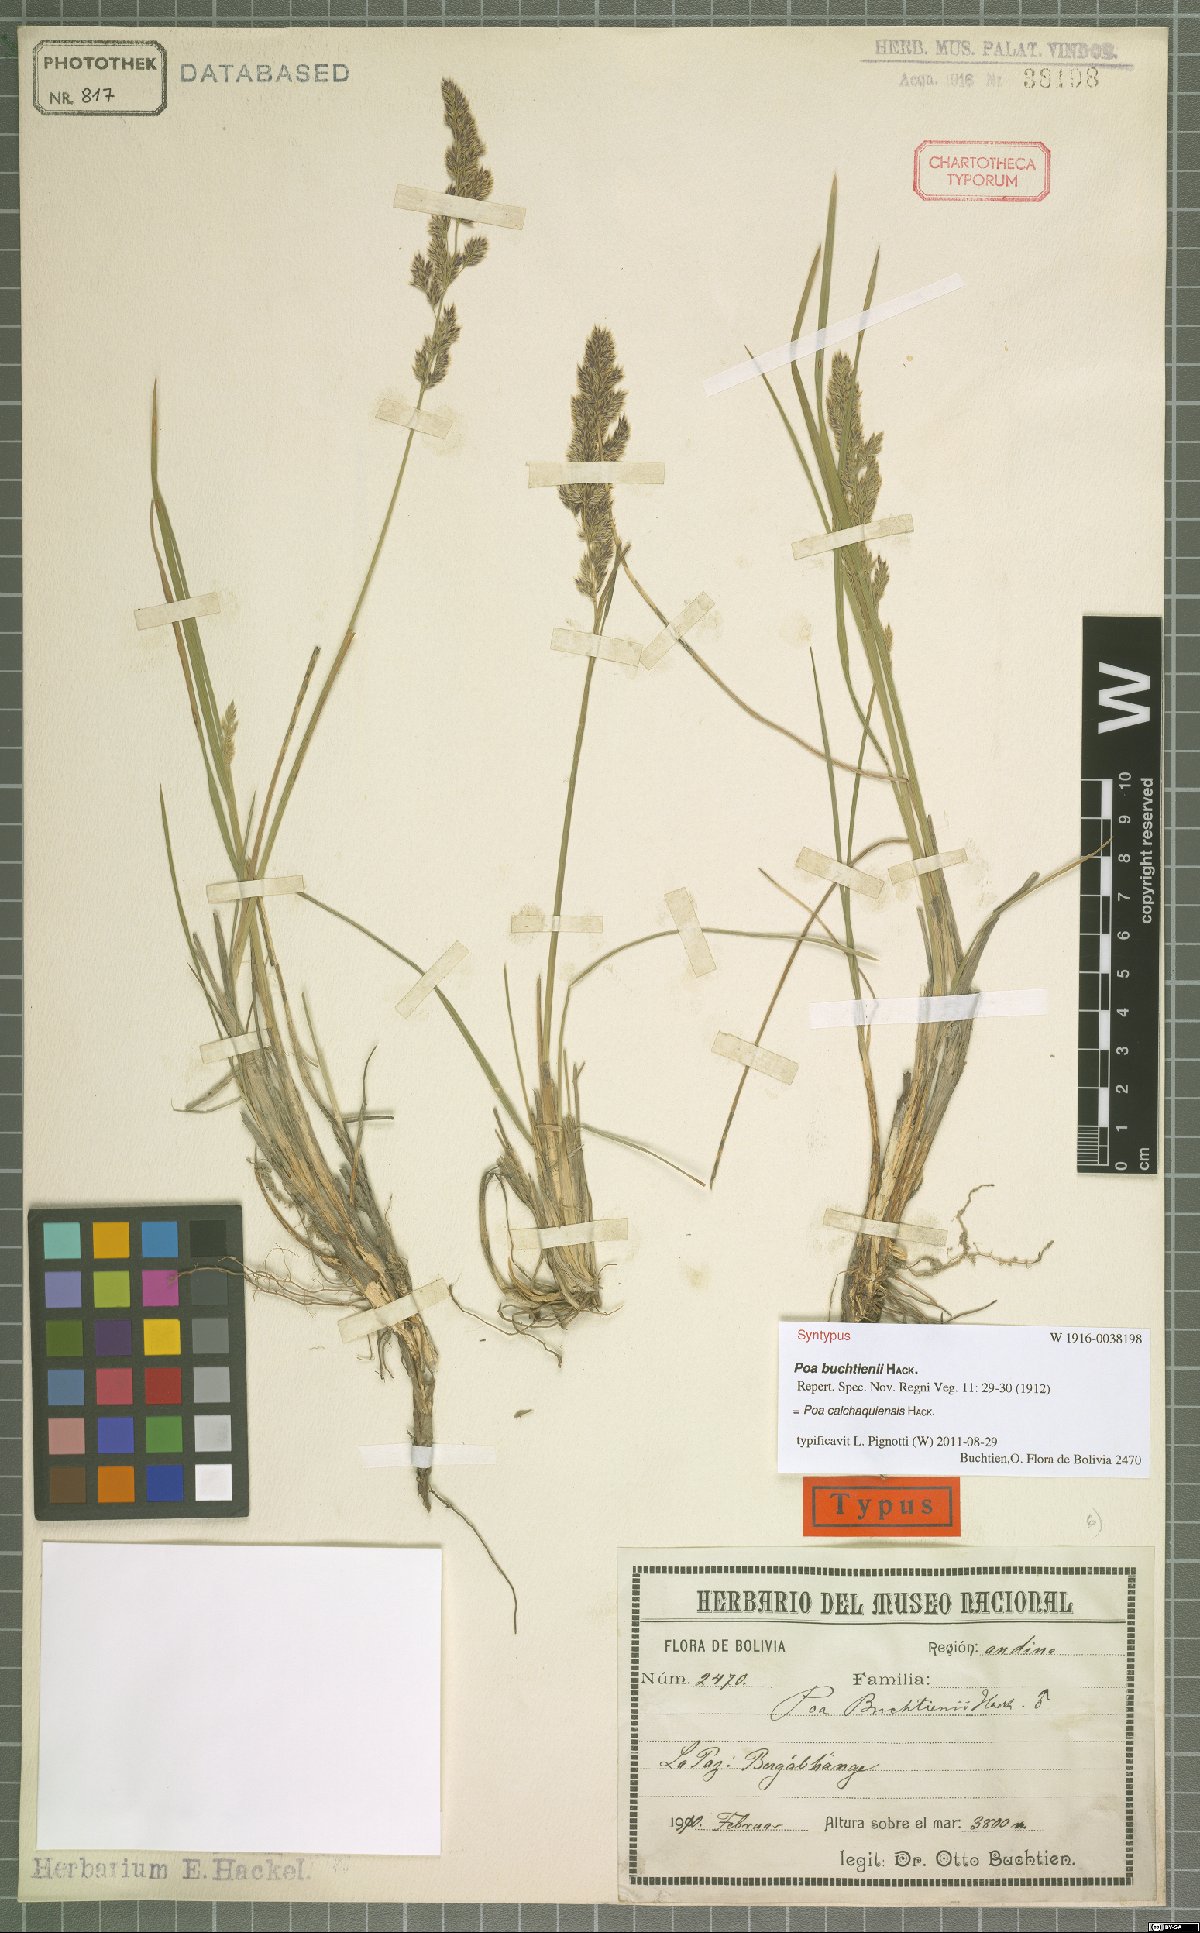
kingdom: Plantae
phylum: Tracheophyta
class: Liliopsida
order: Poales
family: Poaceae
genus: Poa
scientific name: Poa calchaquiensis
